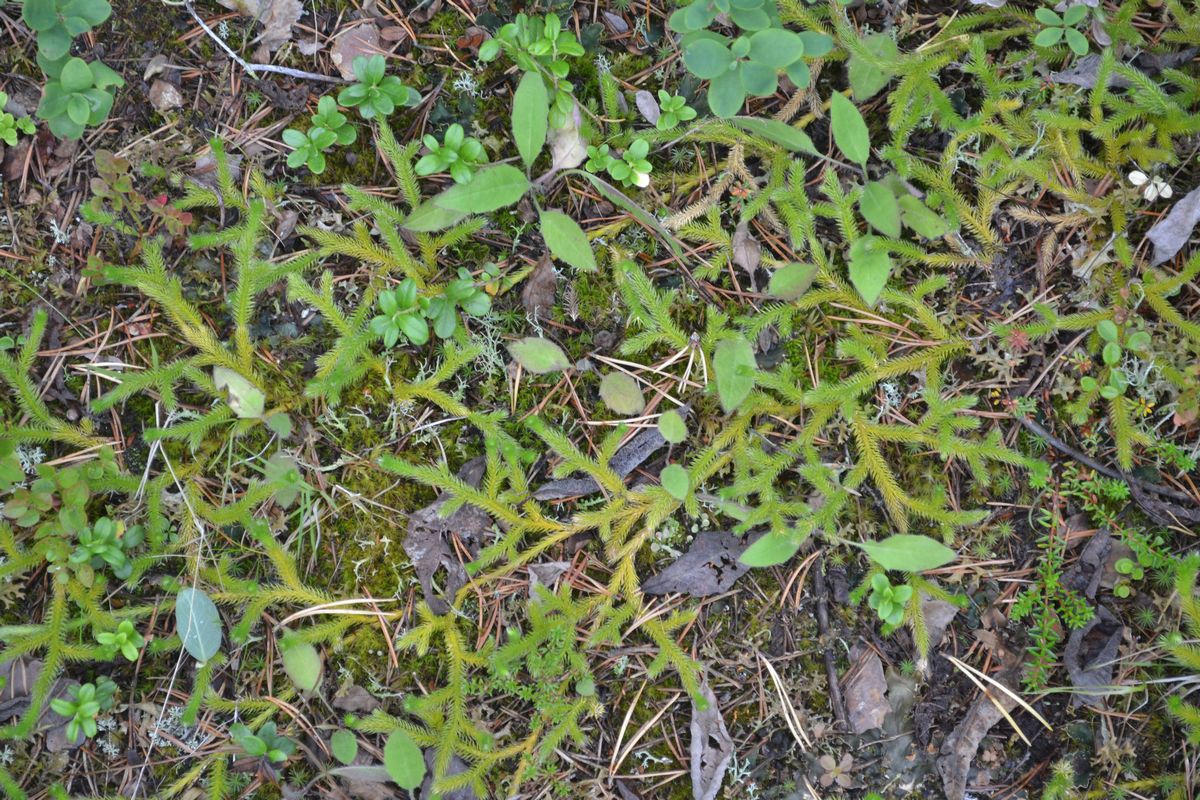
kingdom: Plantae
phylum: Tracheophyta
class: Lycopodiopsida
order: Lycopodiales
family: Lycopodiaceae
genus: Lycopodium
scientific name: Lycopodium lagopus
